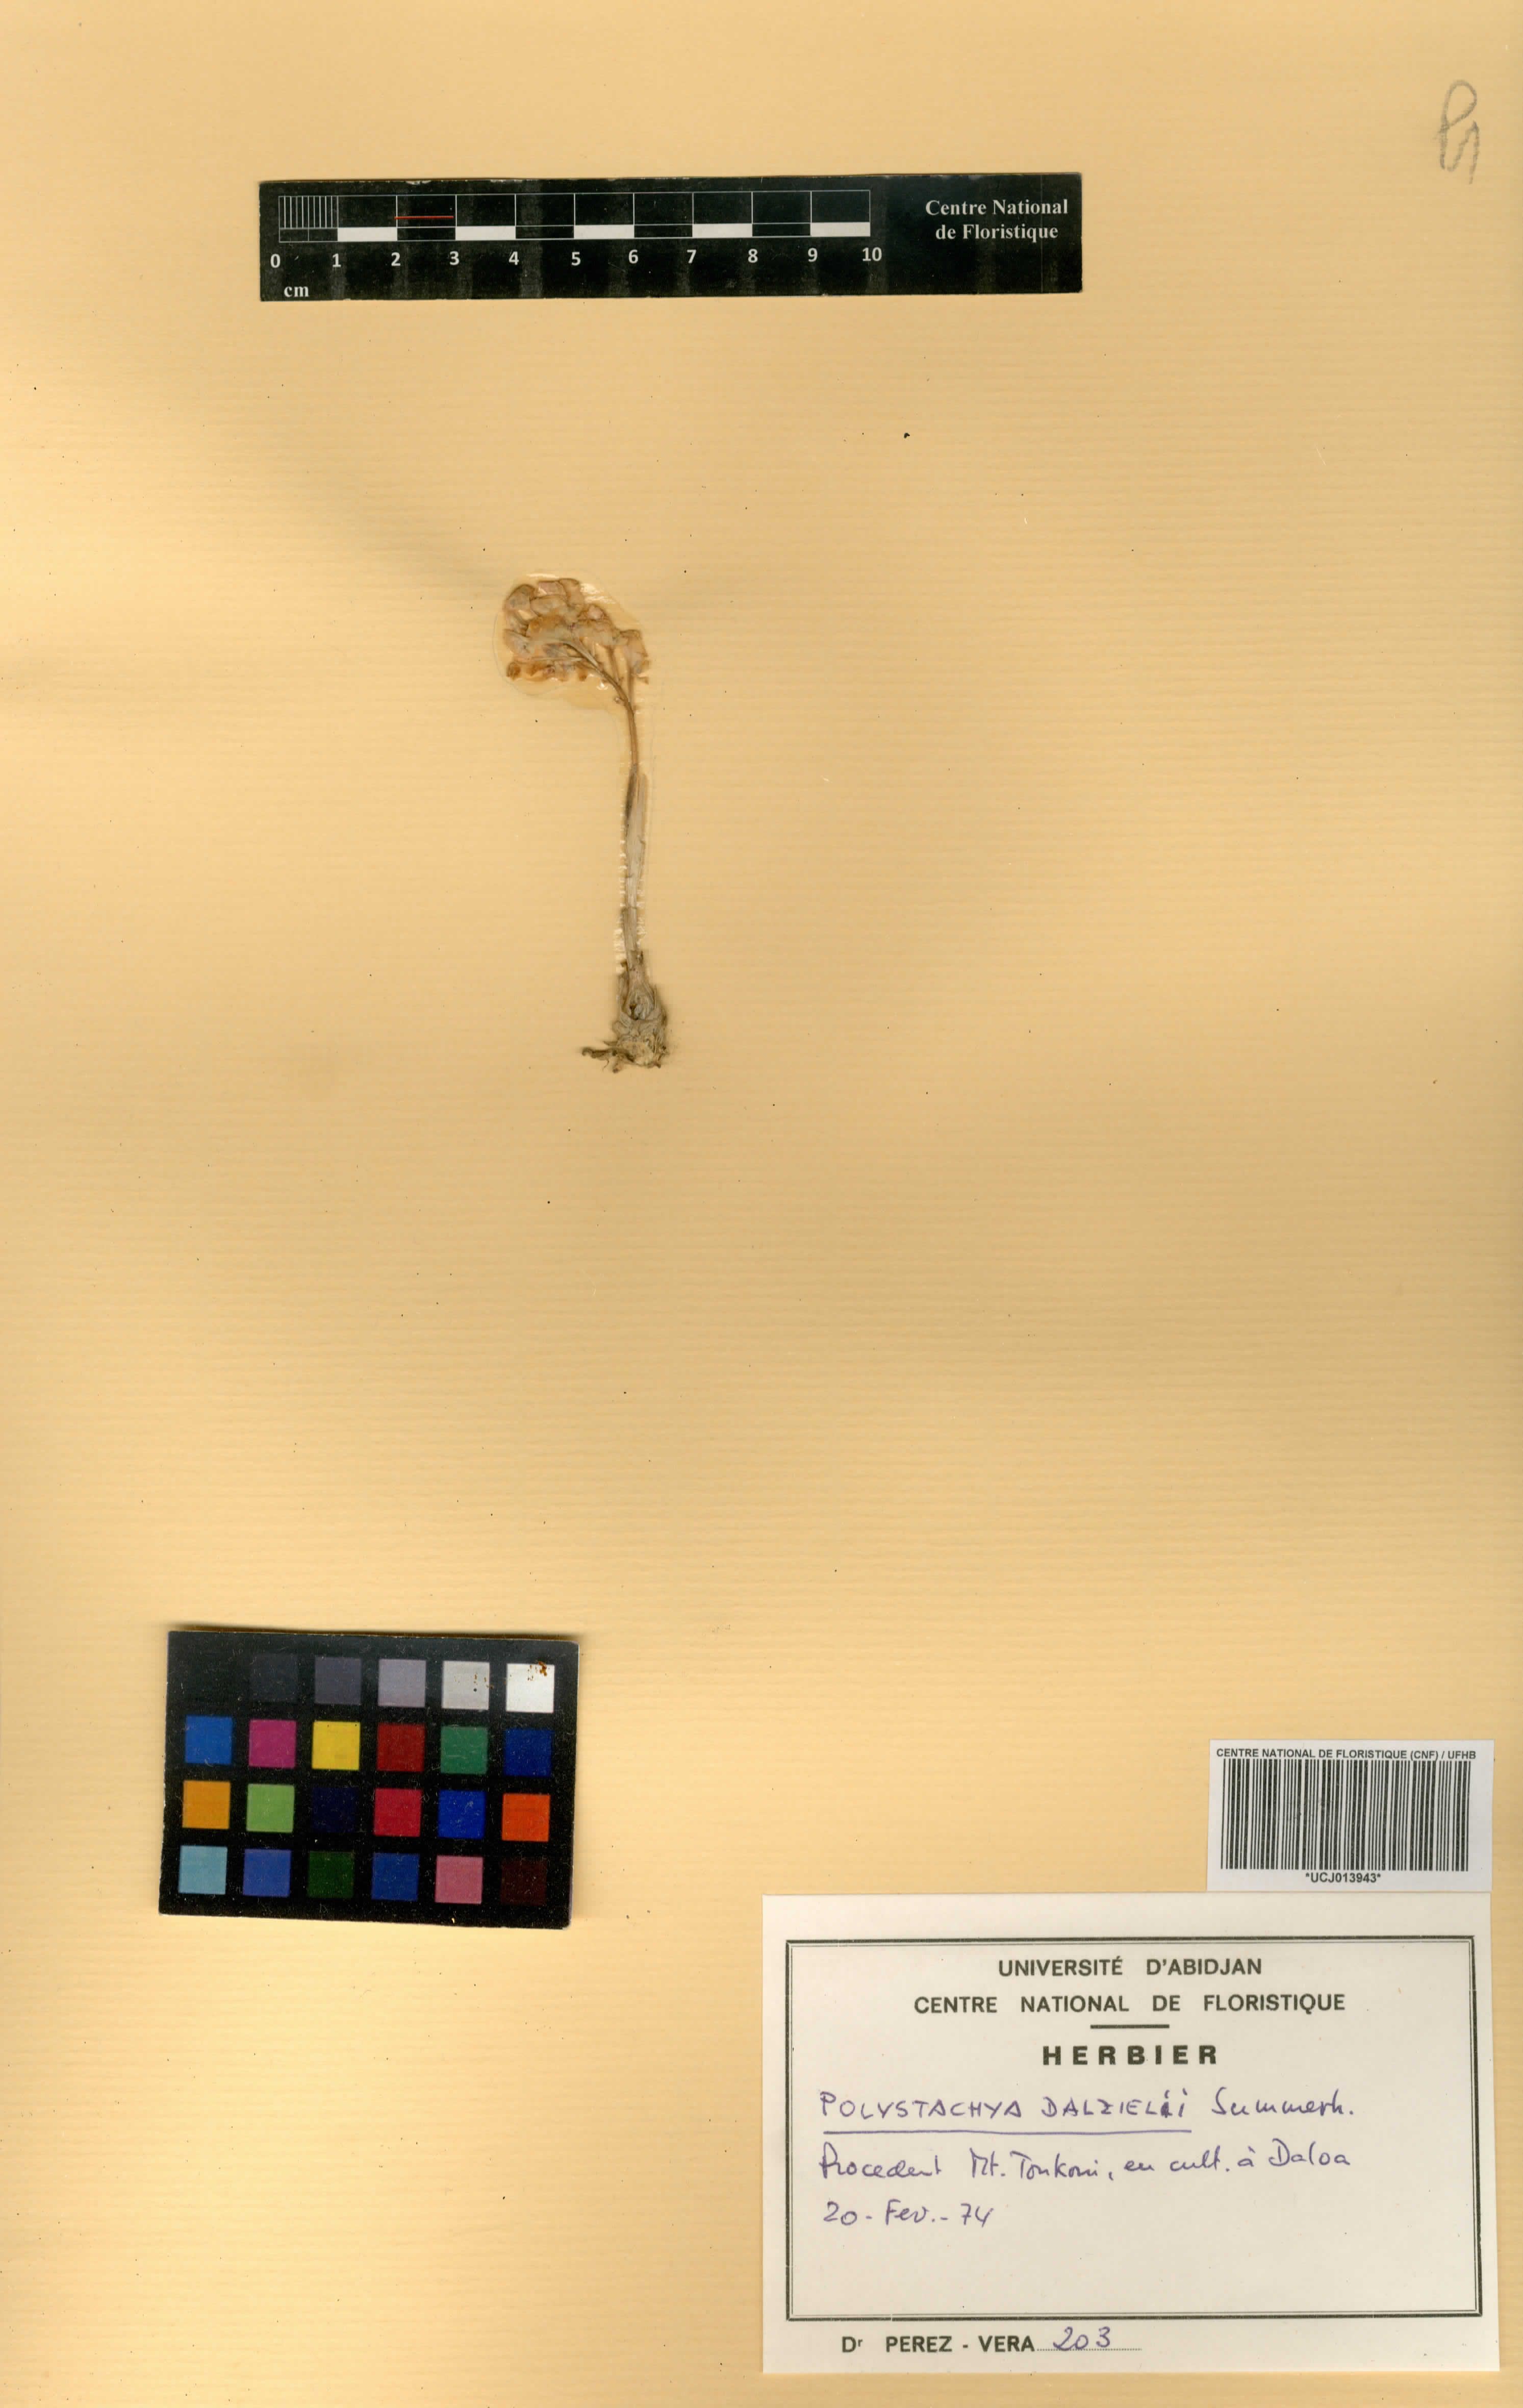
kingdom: Plantae
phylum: Tracheophyta
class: Liliopsida
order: Asparagales
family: Orchidaceae
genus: Polystachya
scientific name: Polystachya dalzielii
